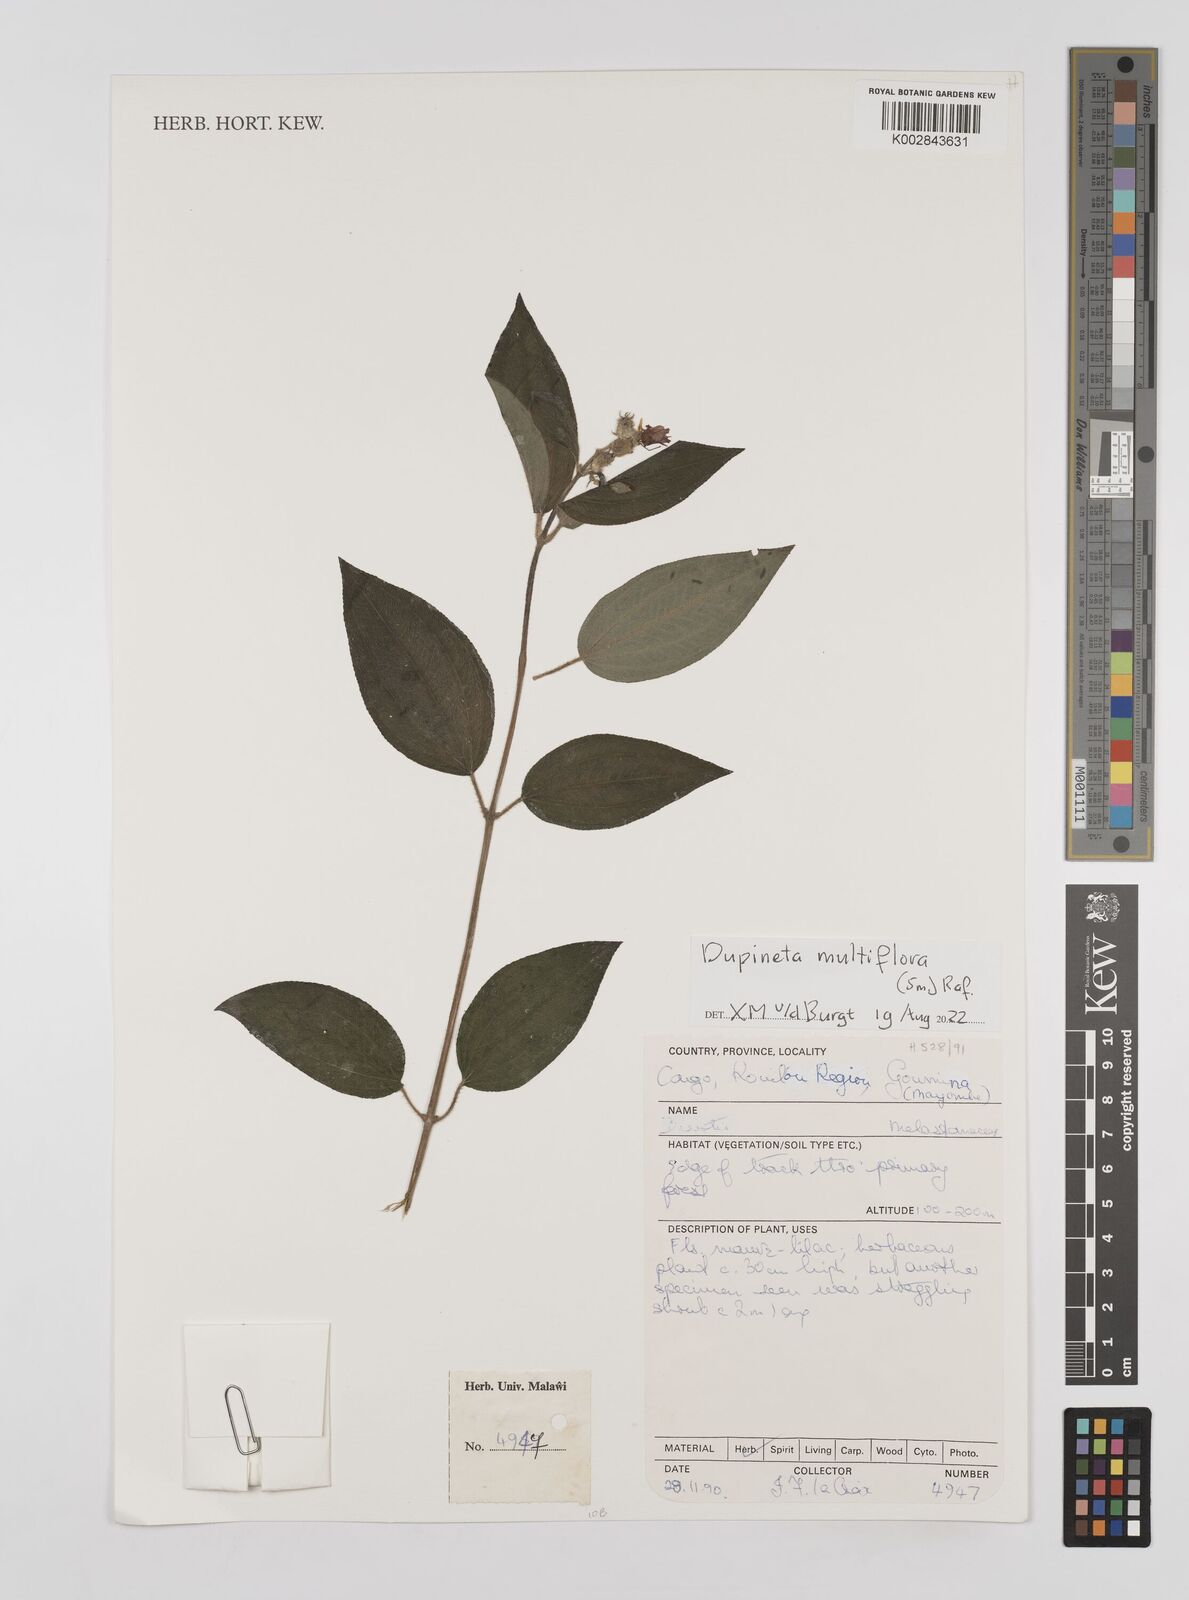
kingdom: Plantae
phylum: Tracheophyta
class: Magnoliopsida
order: Myrtales
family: Melastomataceae
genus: Dupineta
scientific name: Dupineta multiflora
